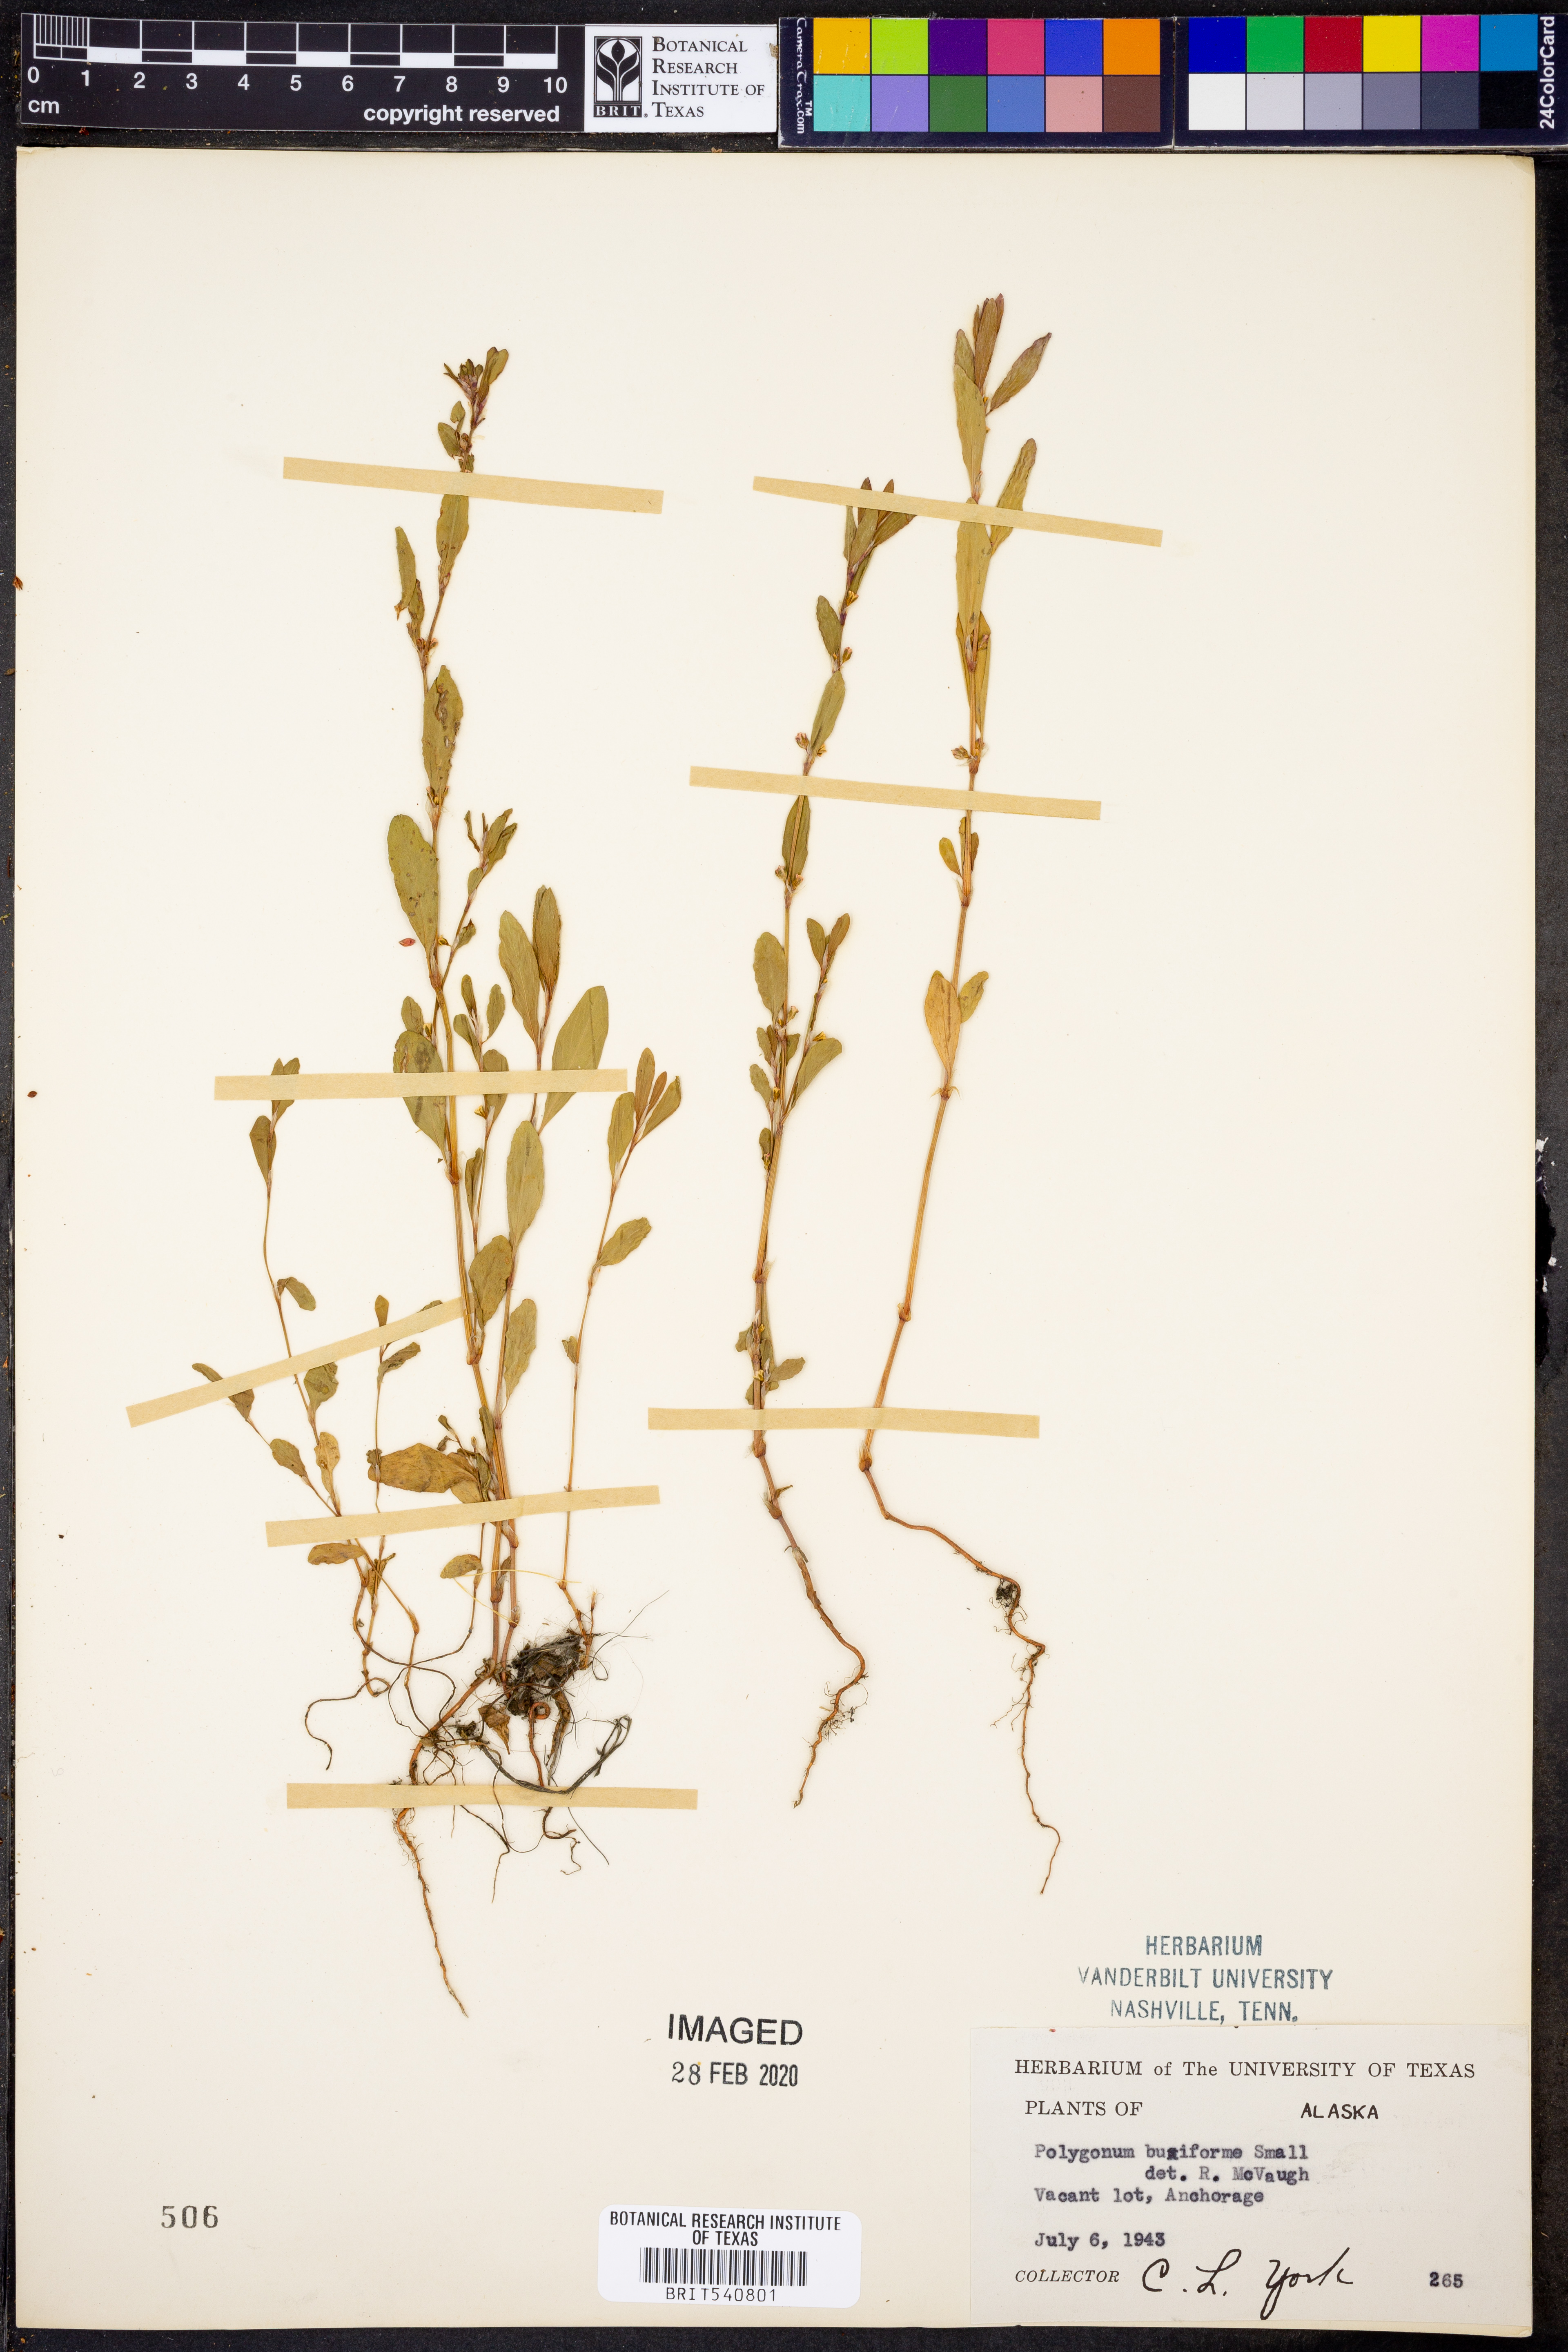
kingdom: Plantae
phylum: Tracheophyta
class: Magnoliopsida
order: Caryophyllales
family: Polygonaceae
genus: Polygonum
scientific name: Polygonum aviculare
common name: Prostrate knotweed
